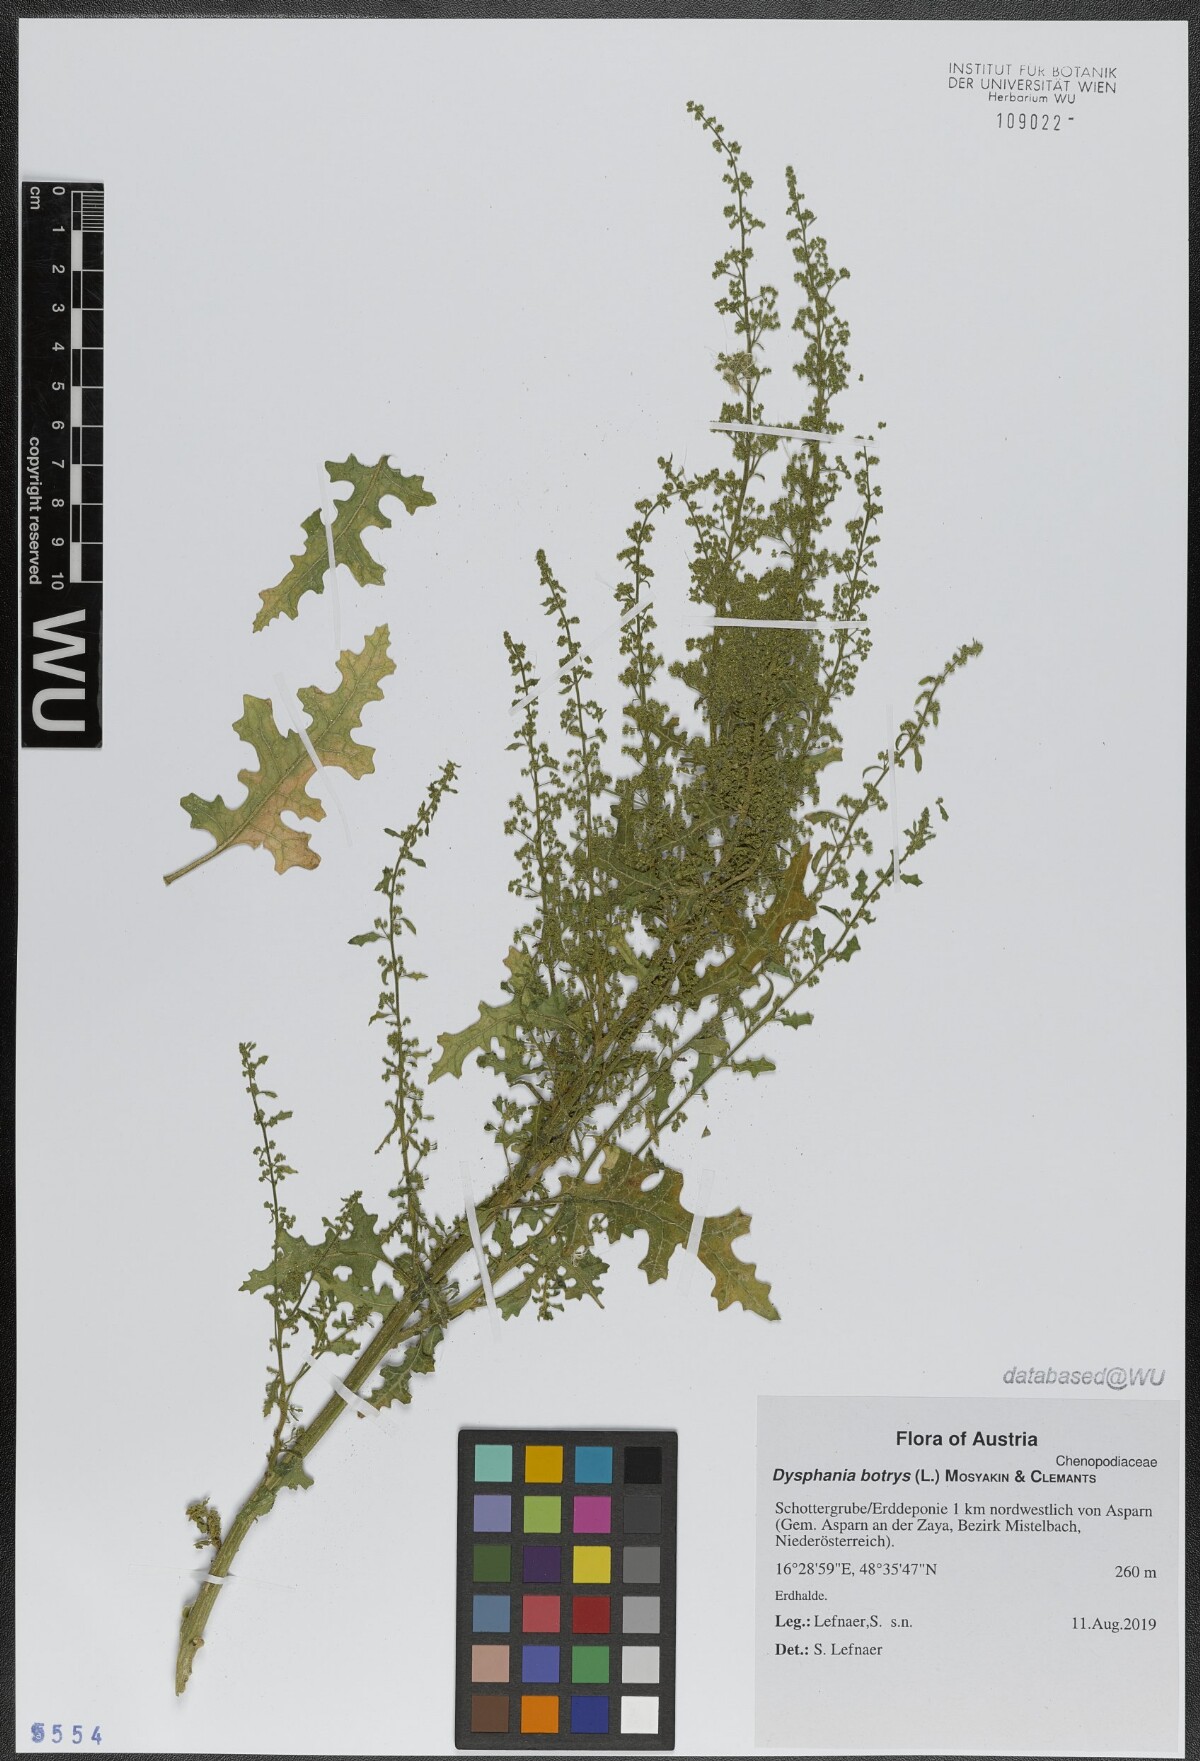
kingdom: Plantae
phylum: Tracheophyta
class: Magnoliopsida
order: Caryophyllales
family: Amaranthaceae
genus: Dysphania
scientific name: Dysphania botrys
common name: Feather-geranium
